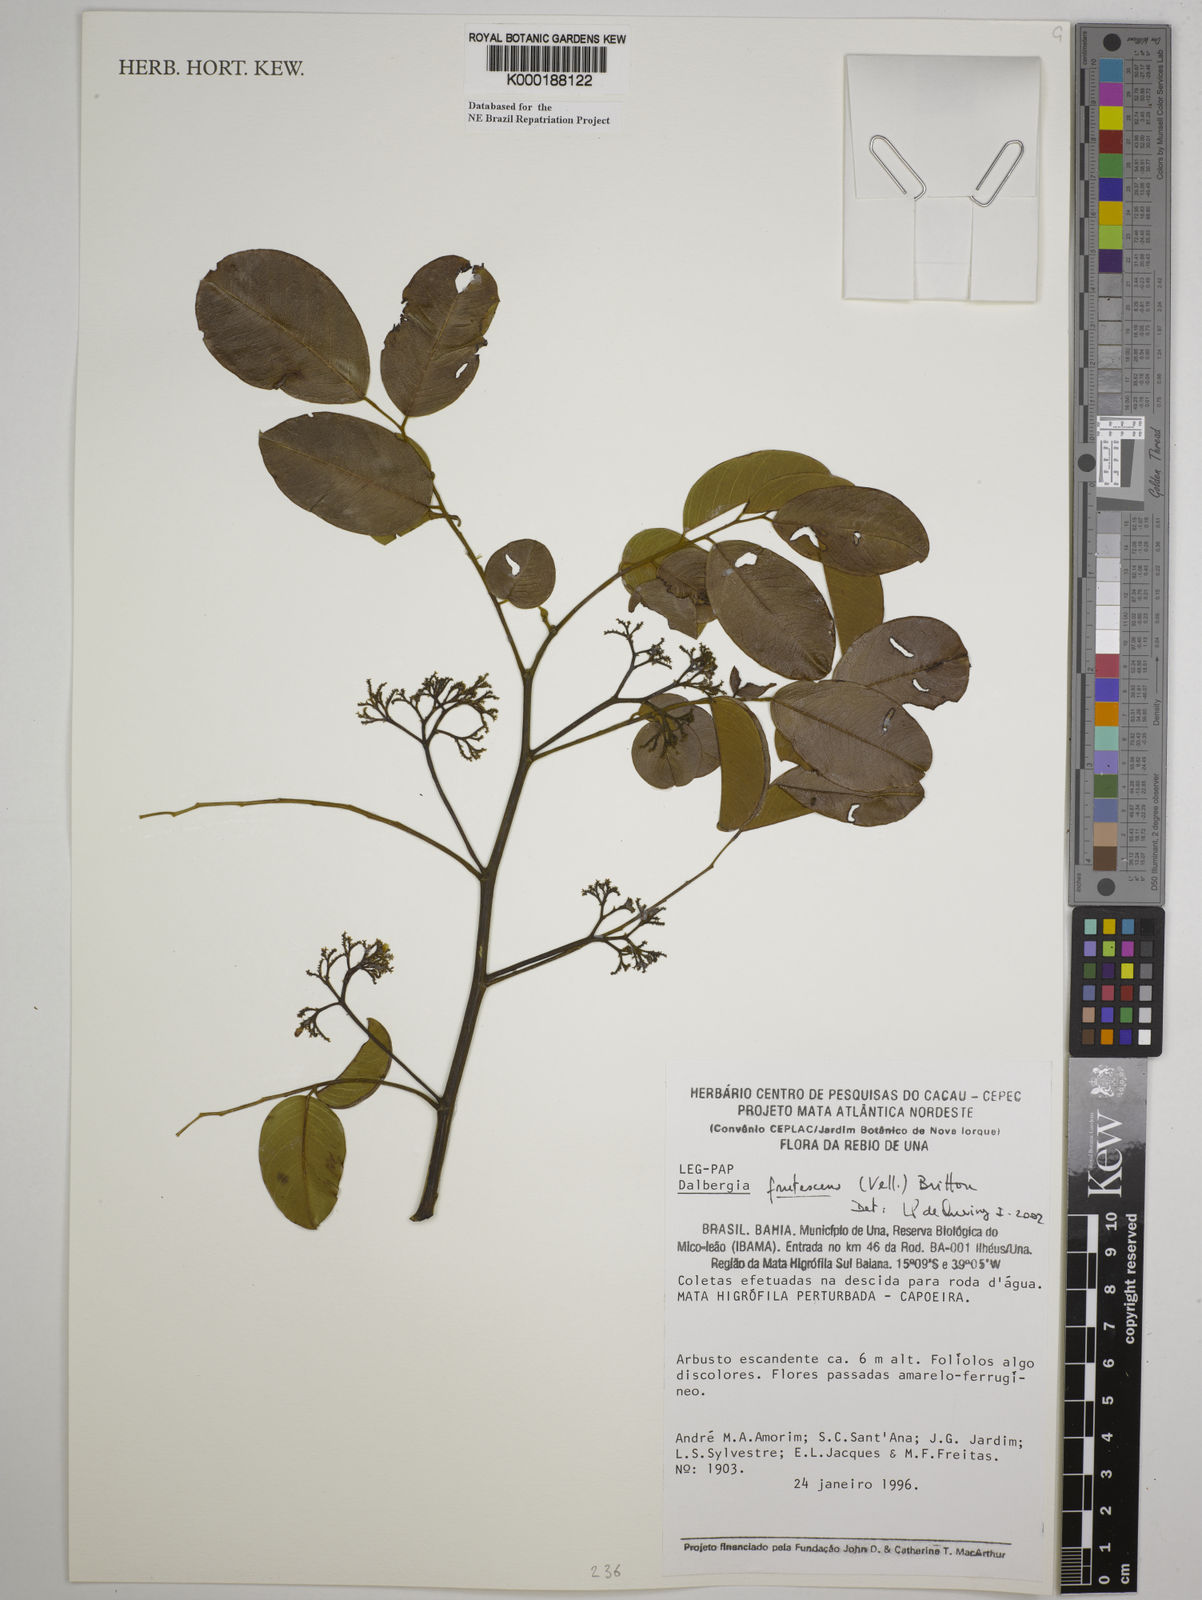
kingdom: Plantae
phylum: Tracheophyta
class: Magnoliopsida
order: Fabales
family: Fabaceae
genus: Dalbergia
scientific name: Dalbergia frutescens
